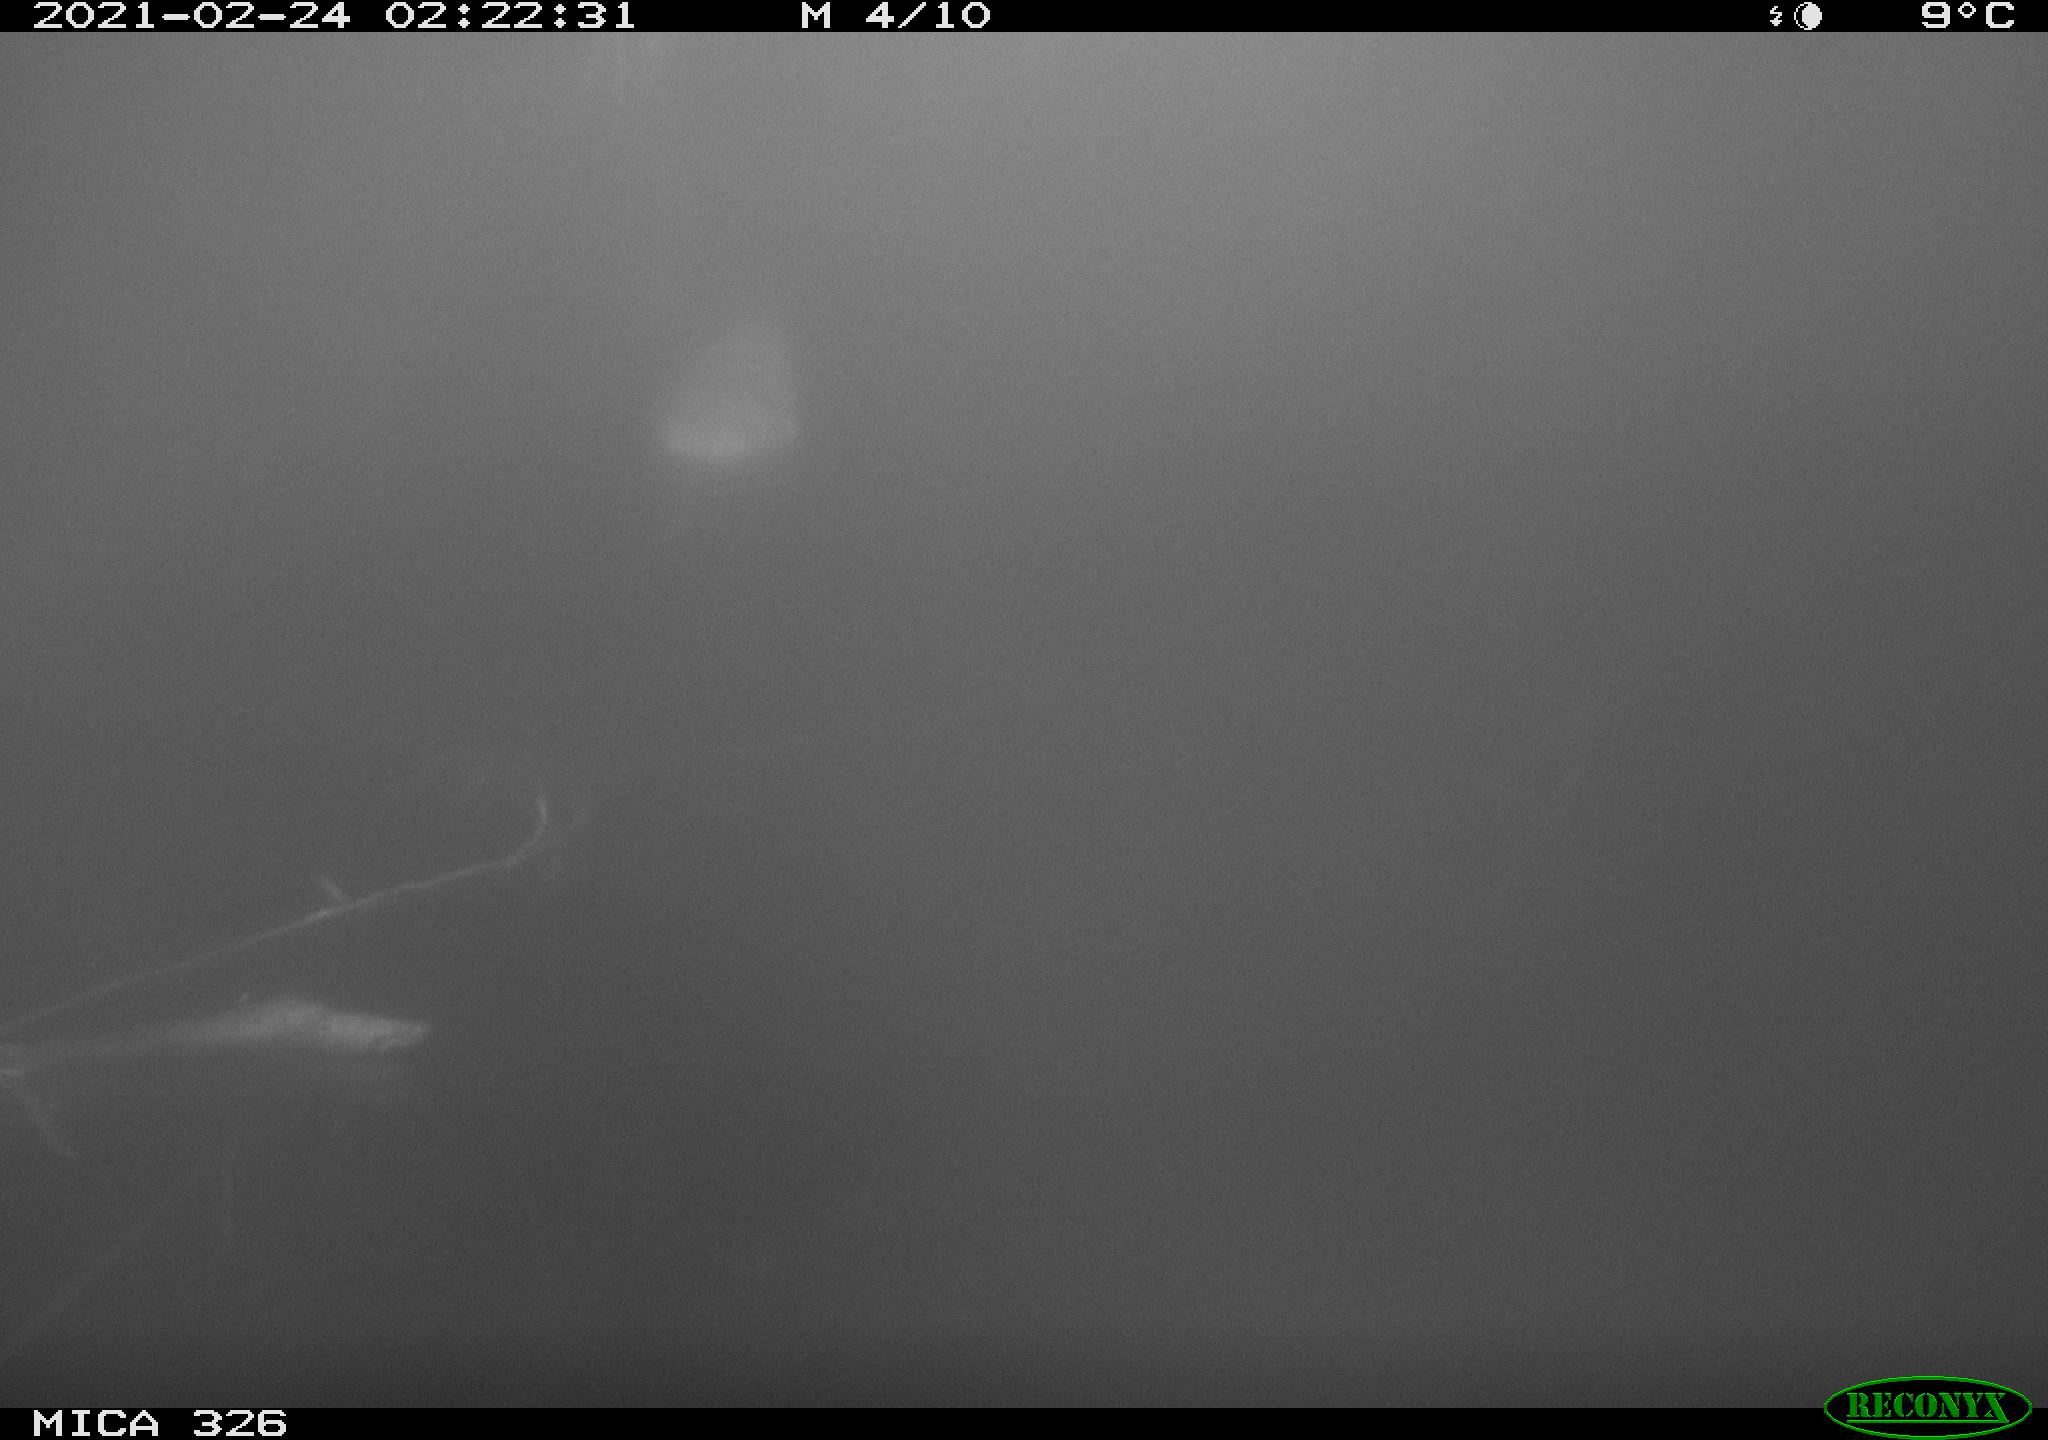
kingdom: Animalia
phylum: Chordata
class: Mammalia
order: Rodentia
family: Cricetidae
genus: Ondatra
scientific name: Ondatra zibethicus
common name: Muskrat
